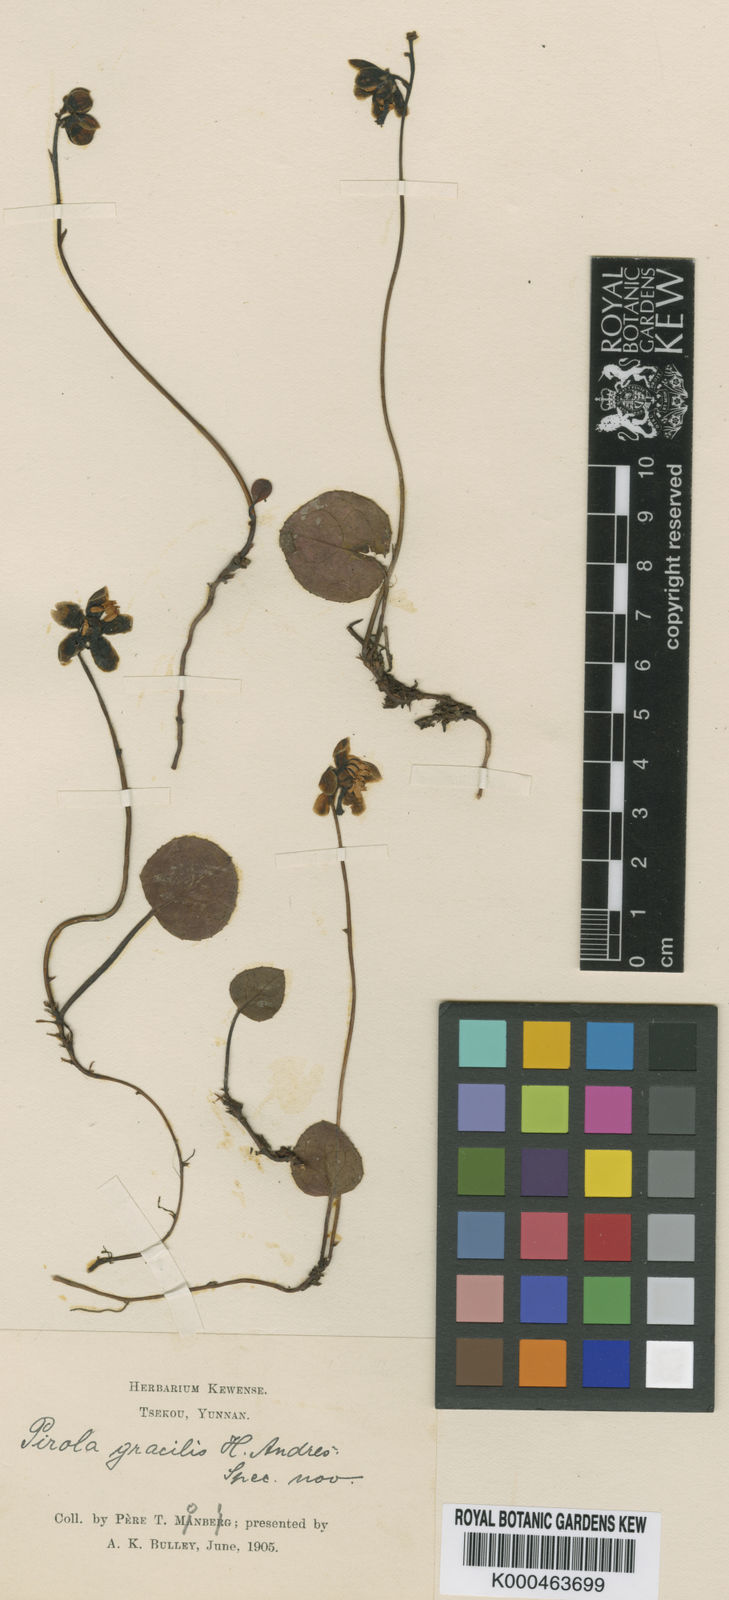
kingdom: Plantae
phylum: Tracheophyta
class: Magnoliopsida
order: Ericales
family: Ericaceae
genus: Pyrola
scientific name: Pyrola
